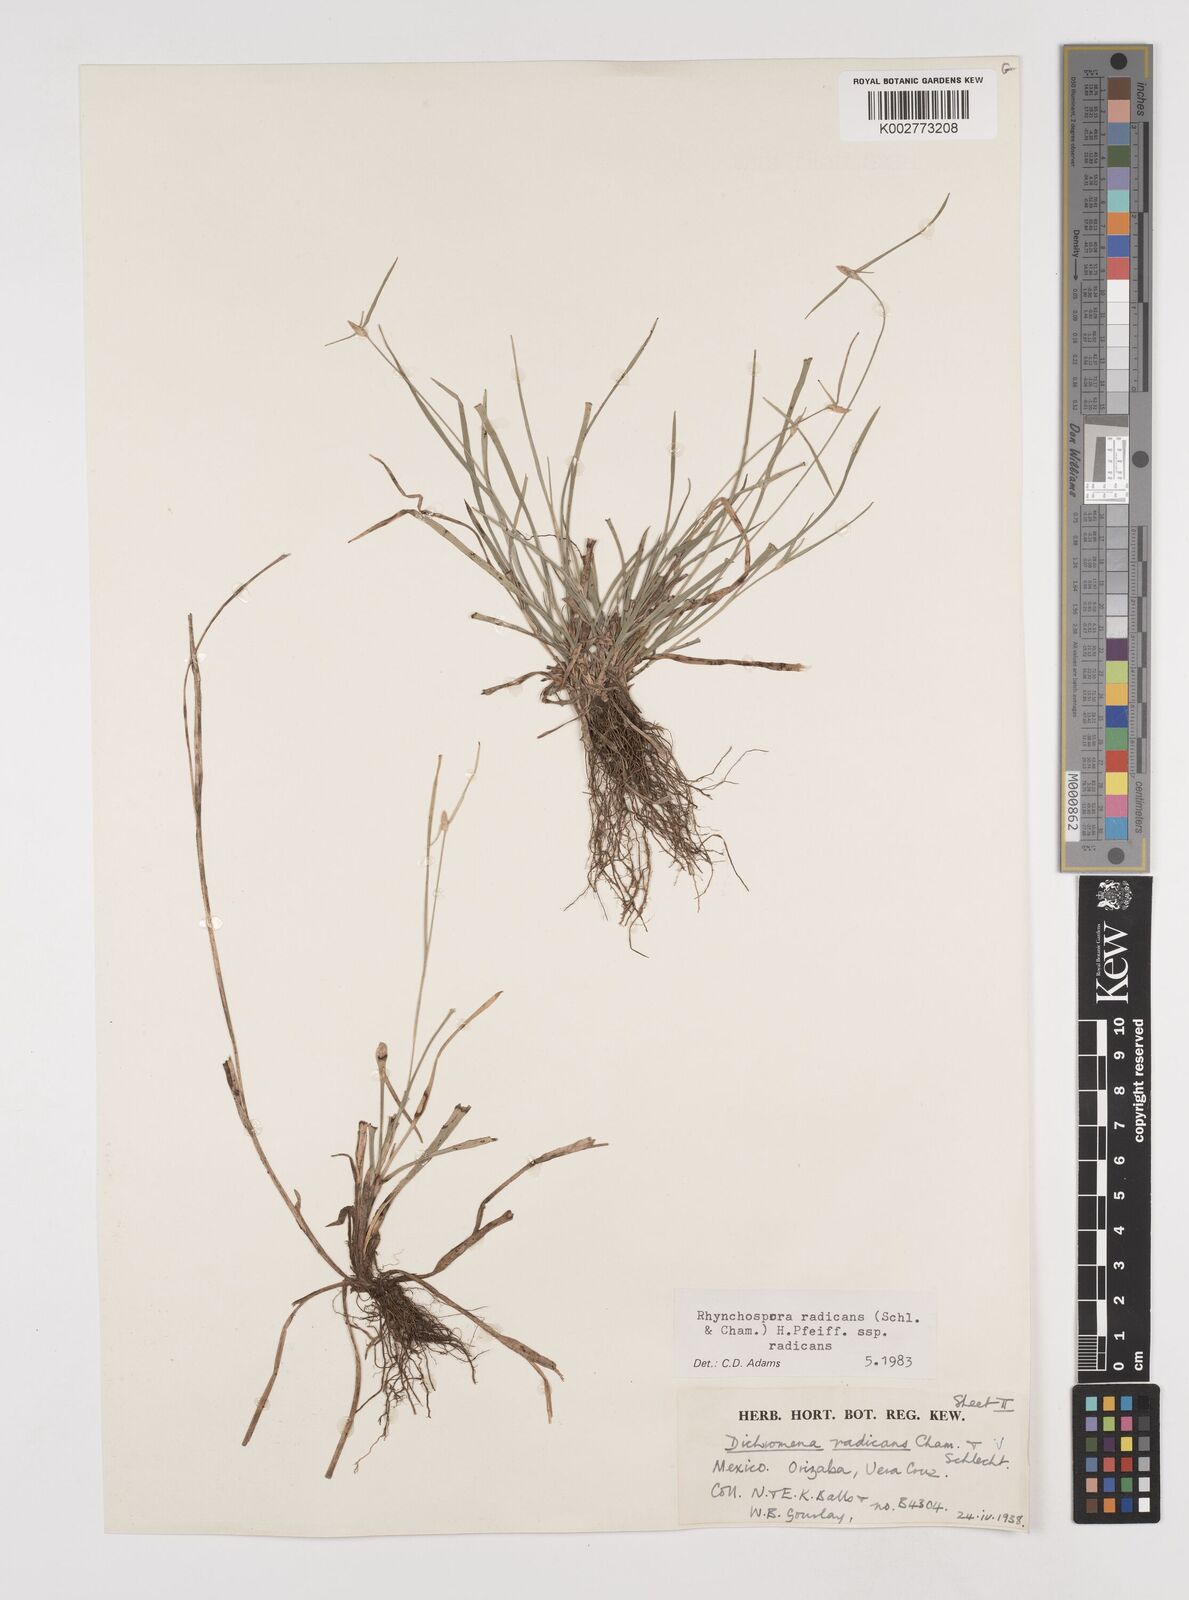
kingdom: Plantae
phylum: Tracheophyta
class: Liliopsida
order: Poales
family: Cyperaceae
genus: Rhynchospora
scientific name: Rhynchospora radicans
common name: Tropical whitetop
